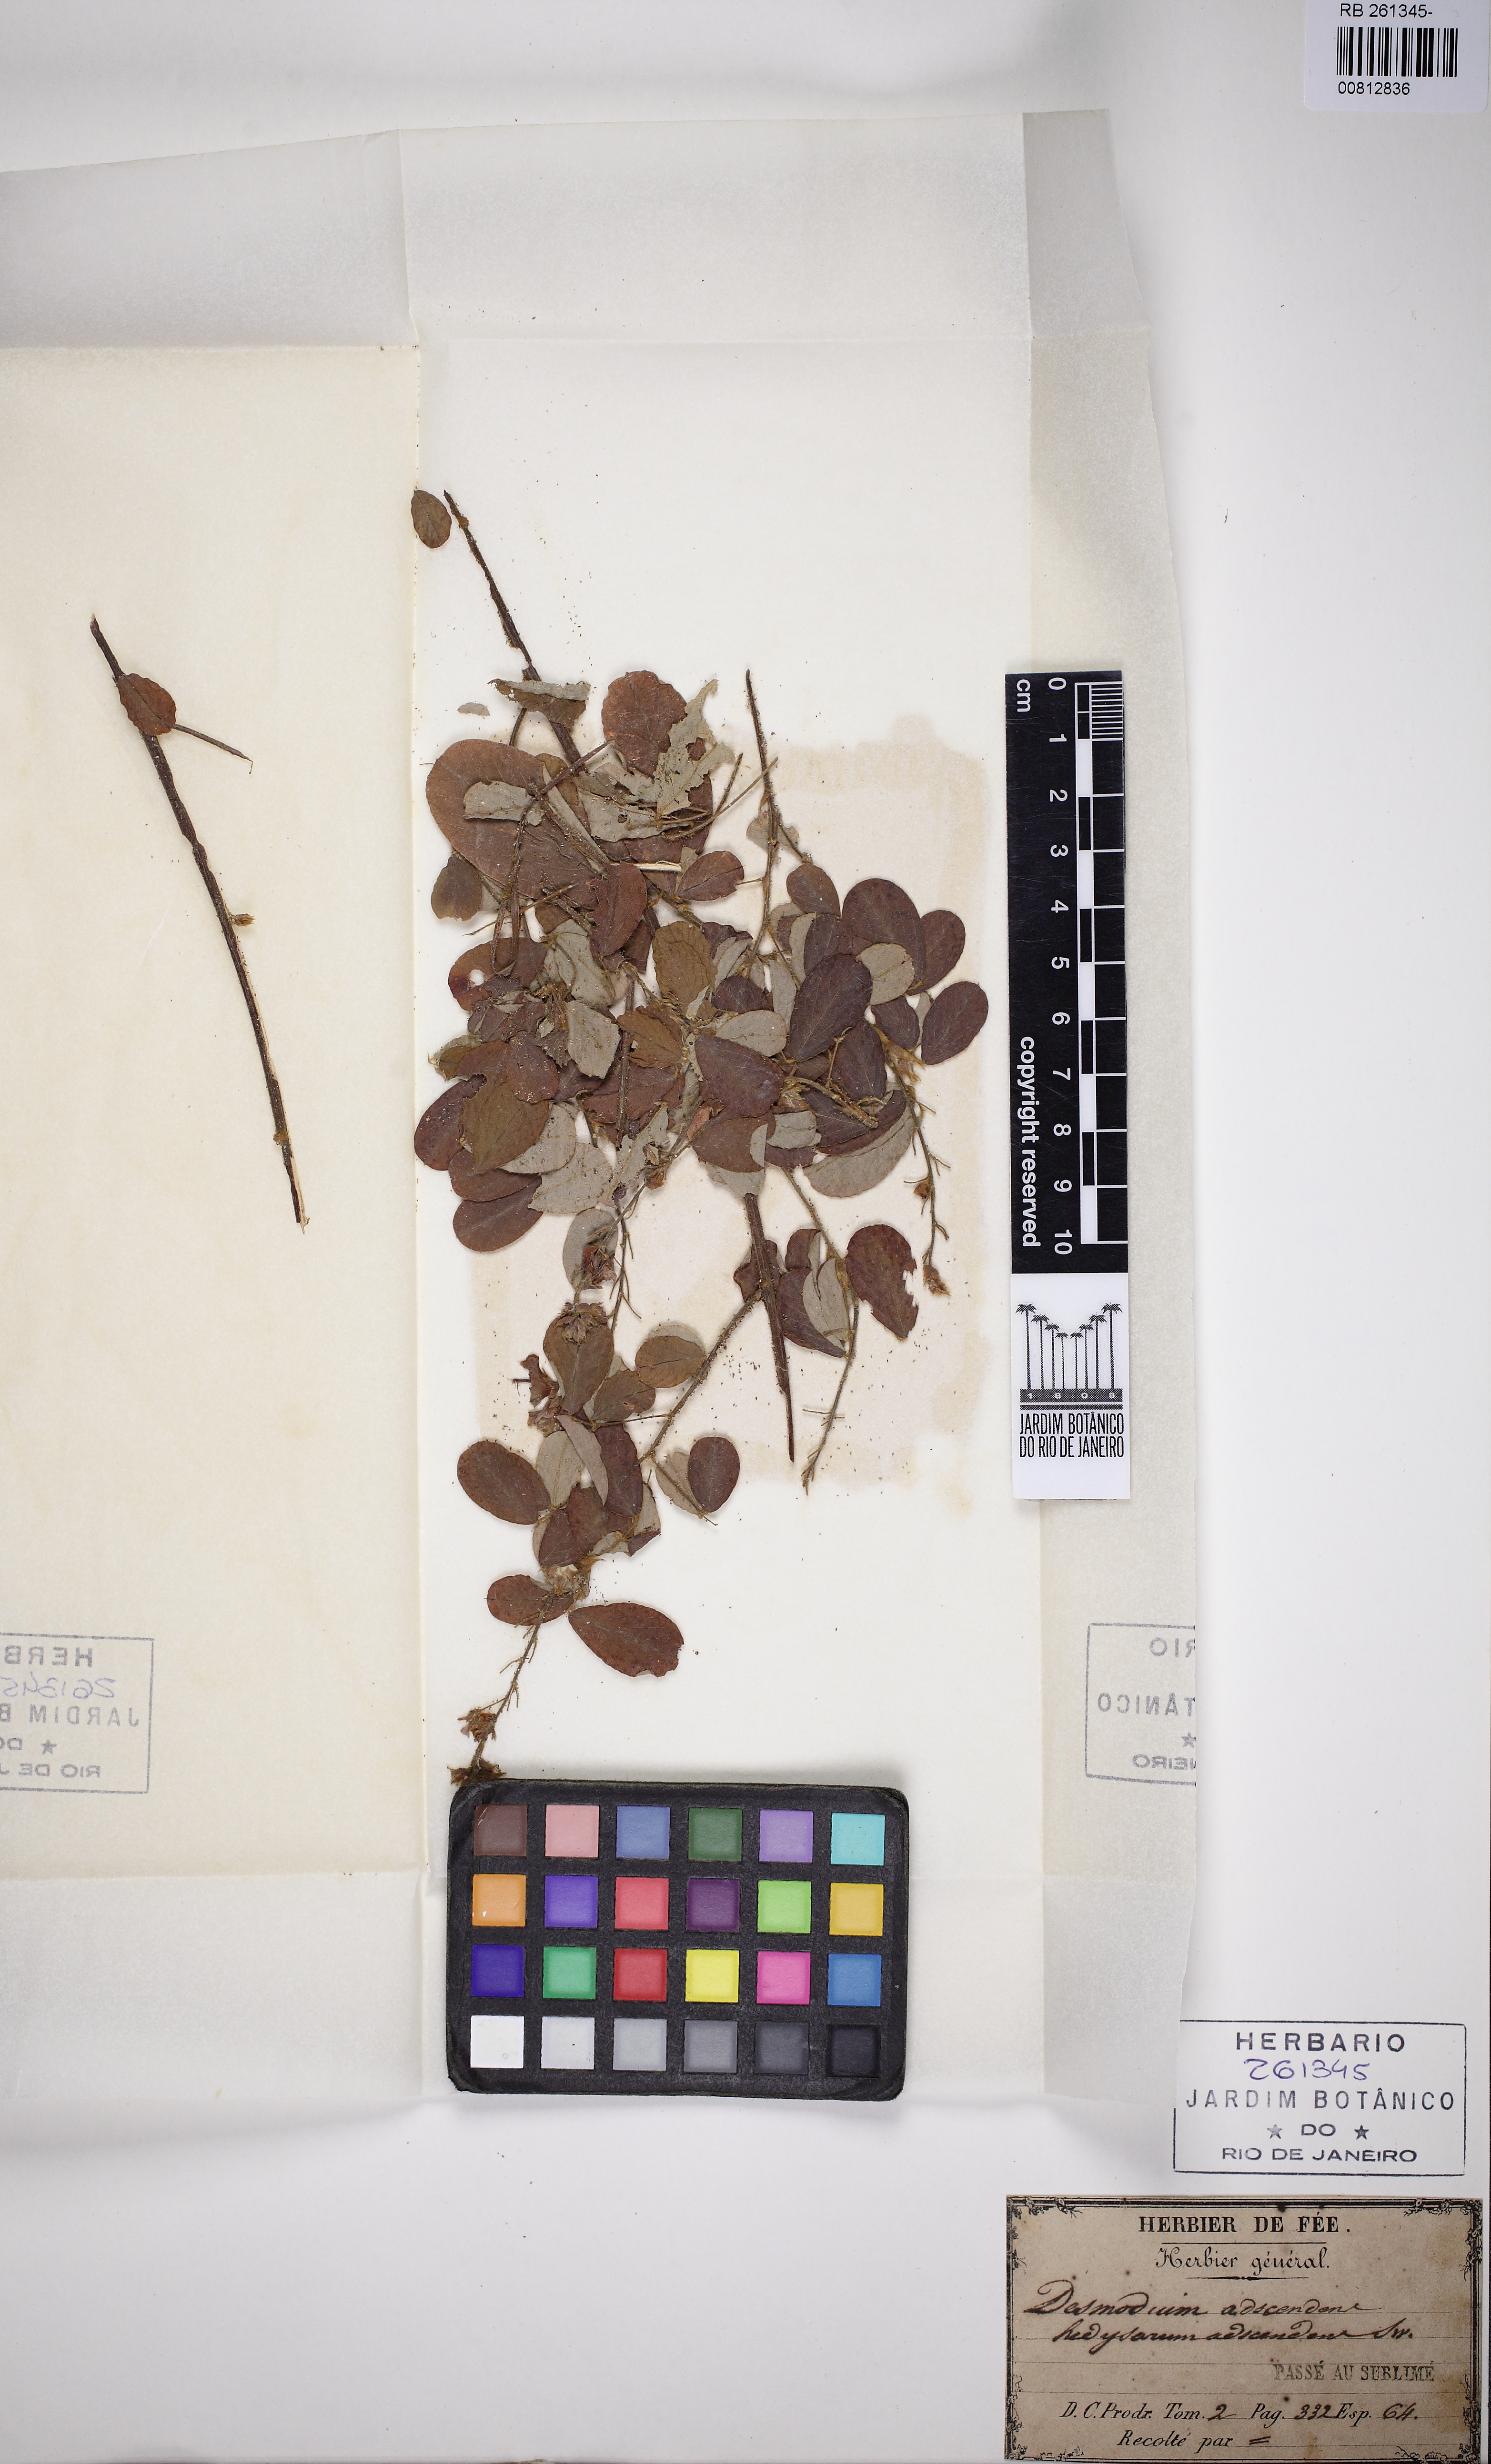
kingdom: Plantae
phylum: Tracheophyta
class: Magnoliopsida
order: Fabales
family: Fabaceae
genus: Grona
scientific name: Grona adscendens
